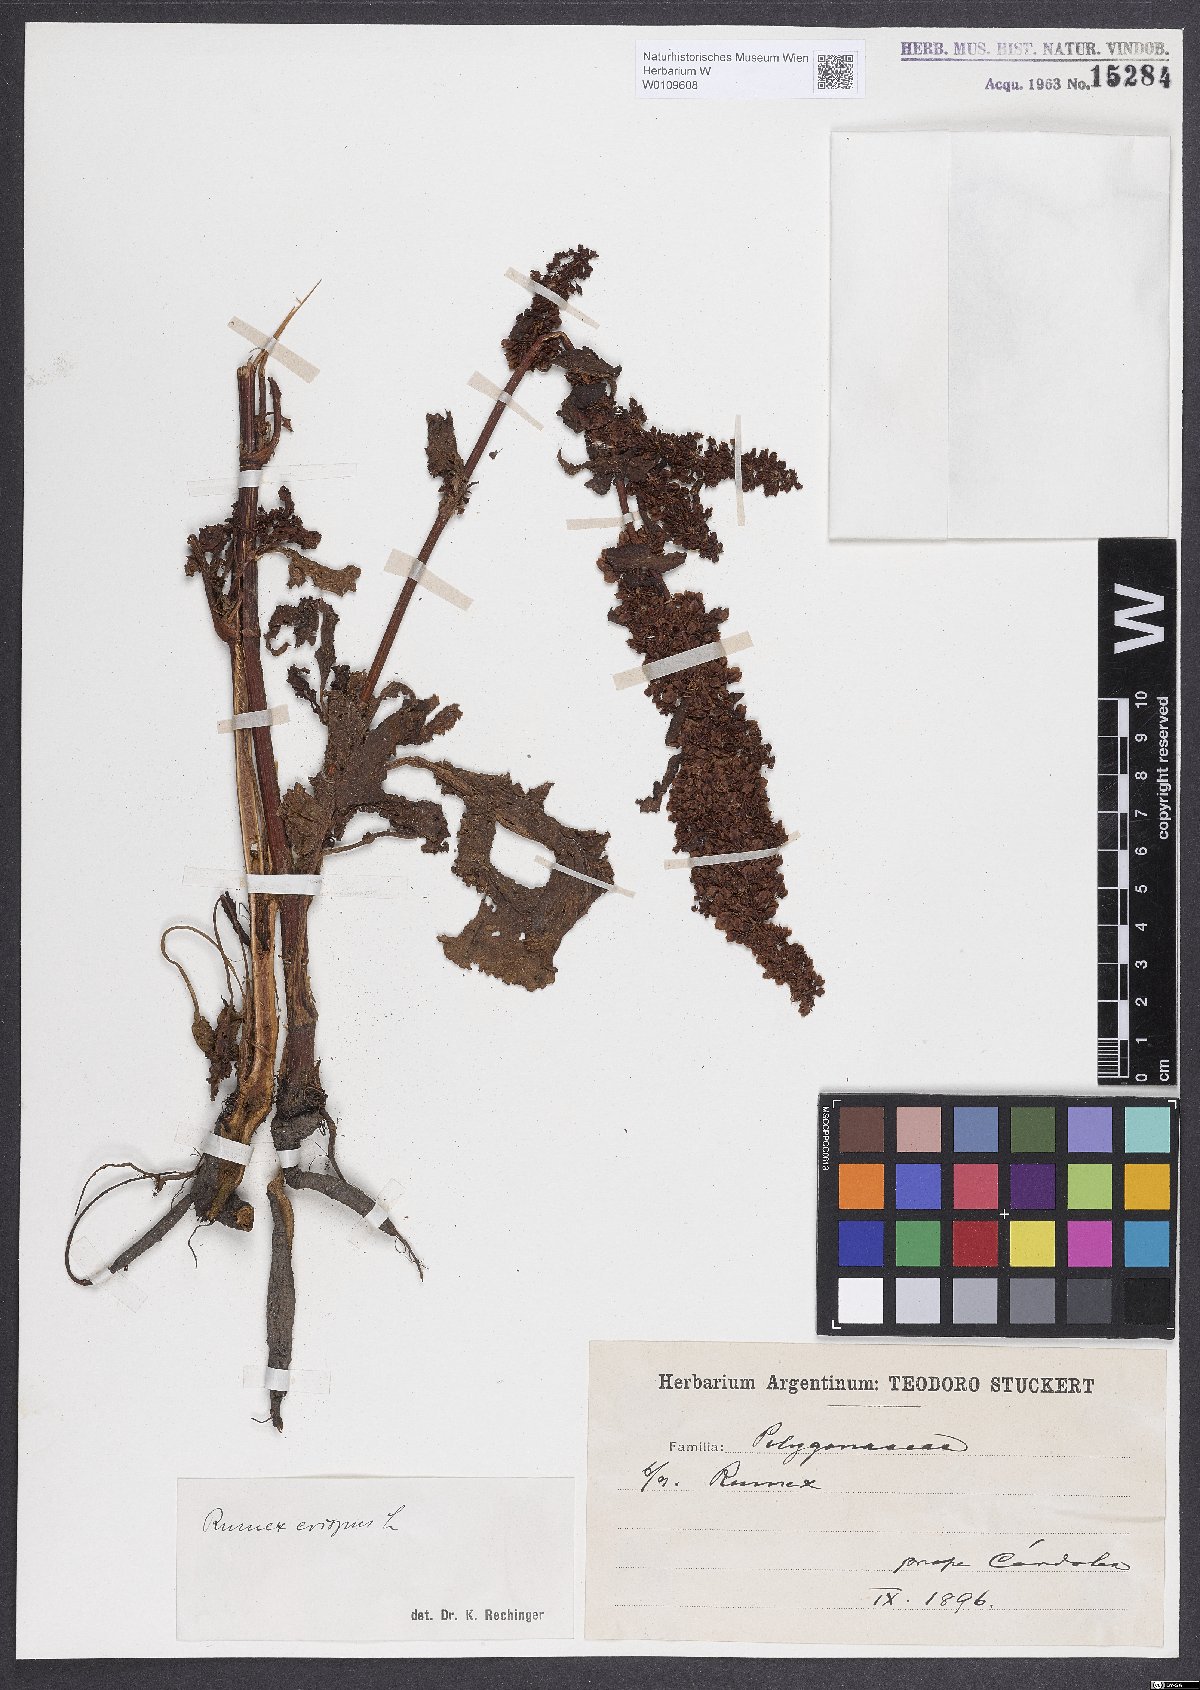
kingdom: Plantae
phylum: Tracheophyta
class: Magnoliopsida
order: Caryophyllales
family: Polygonaceae
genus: Rumex
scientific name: Rumex crispus
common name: Curled dock
